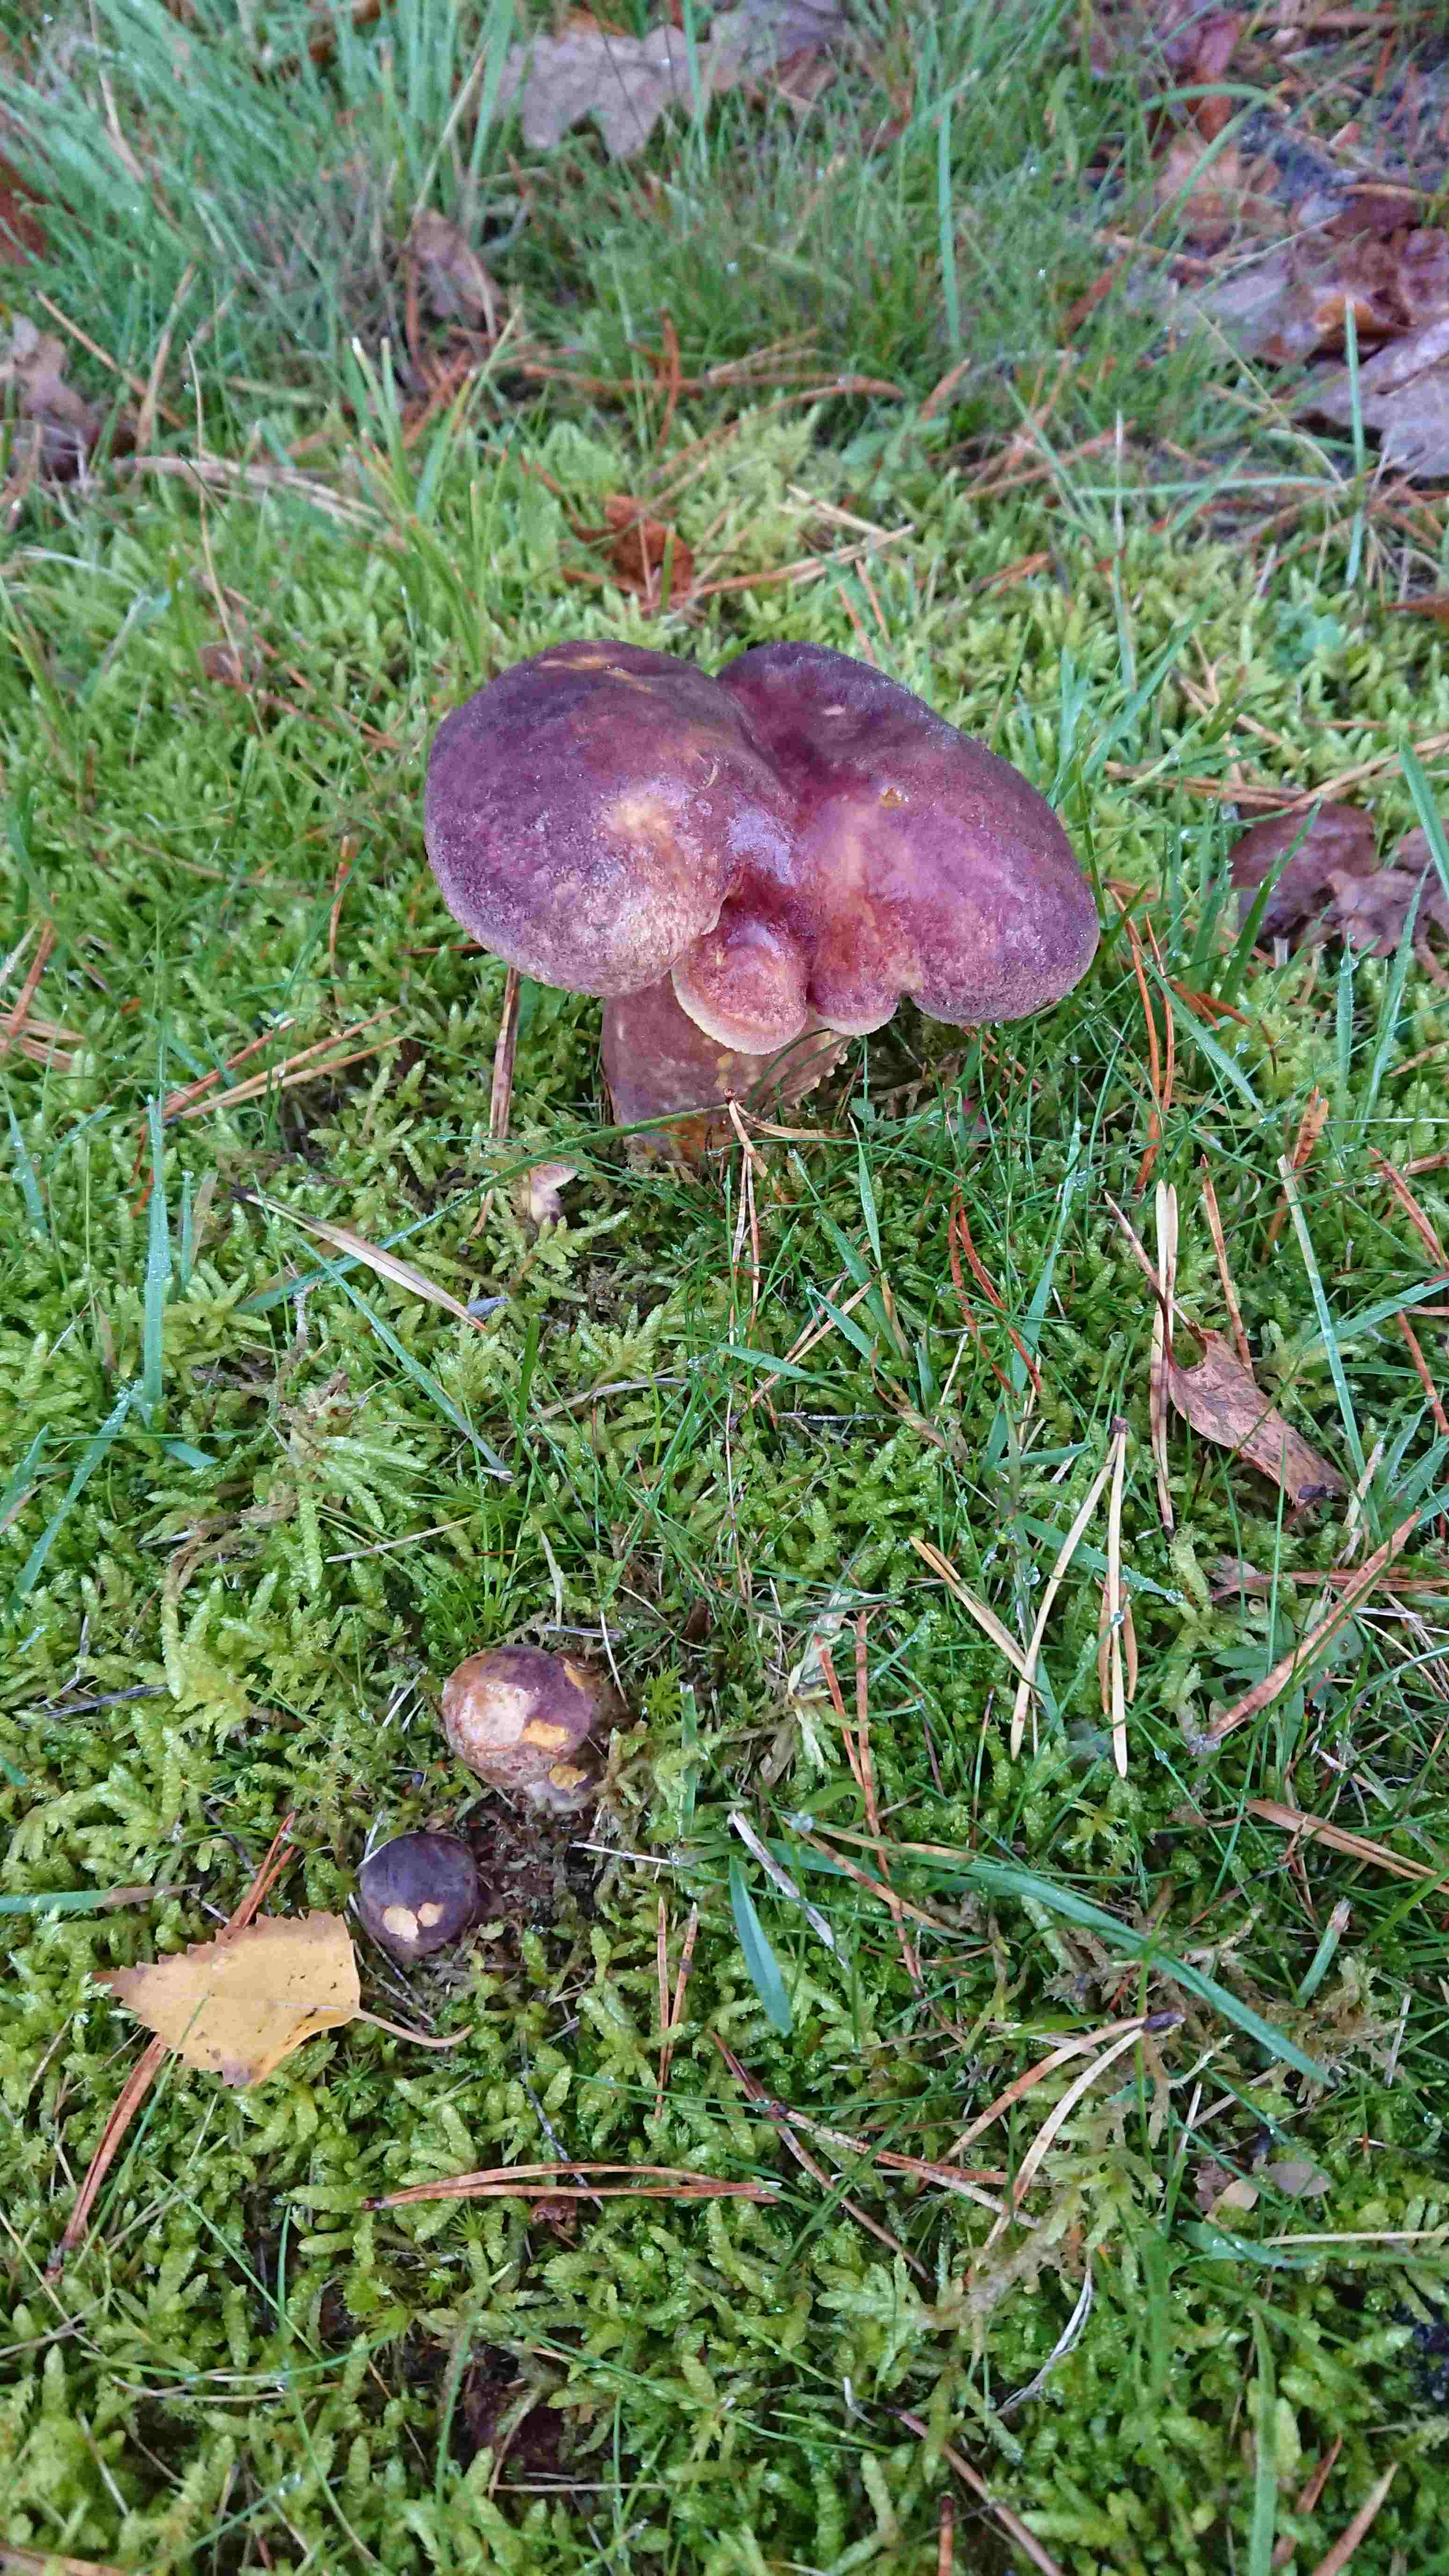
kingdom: Fungi
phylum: Basidiomycota
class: Agaricomycetes
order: Agaricales
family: Tricholomataceae
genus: Tricholomopsis
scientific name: Tricholomopsis rutilans
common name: purpur-væbnerhat
